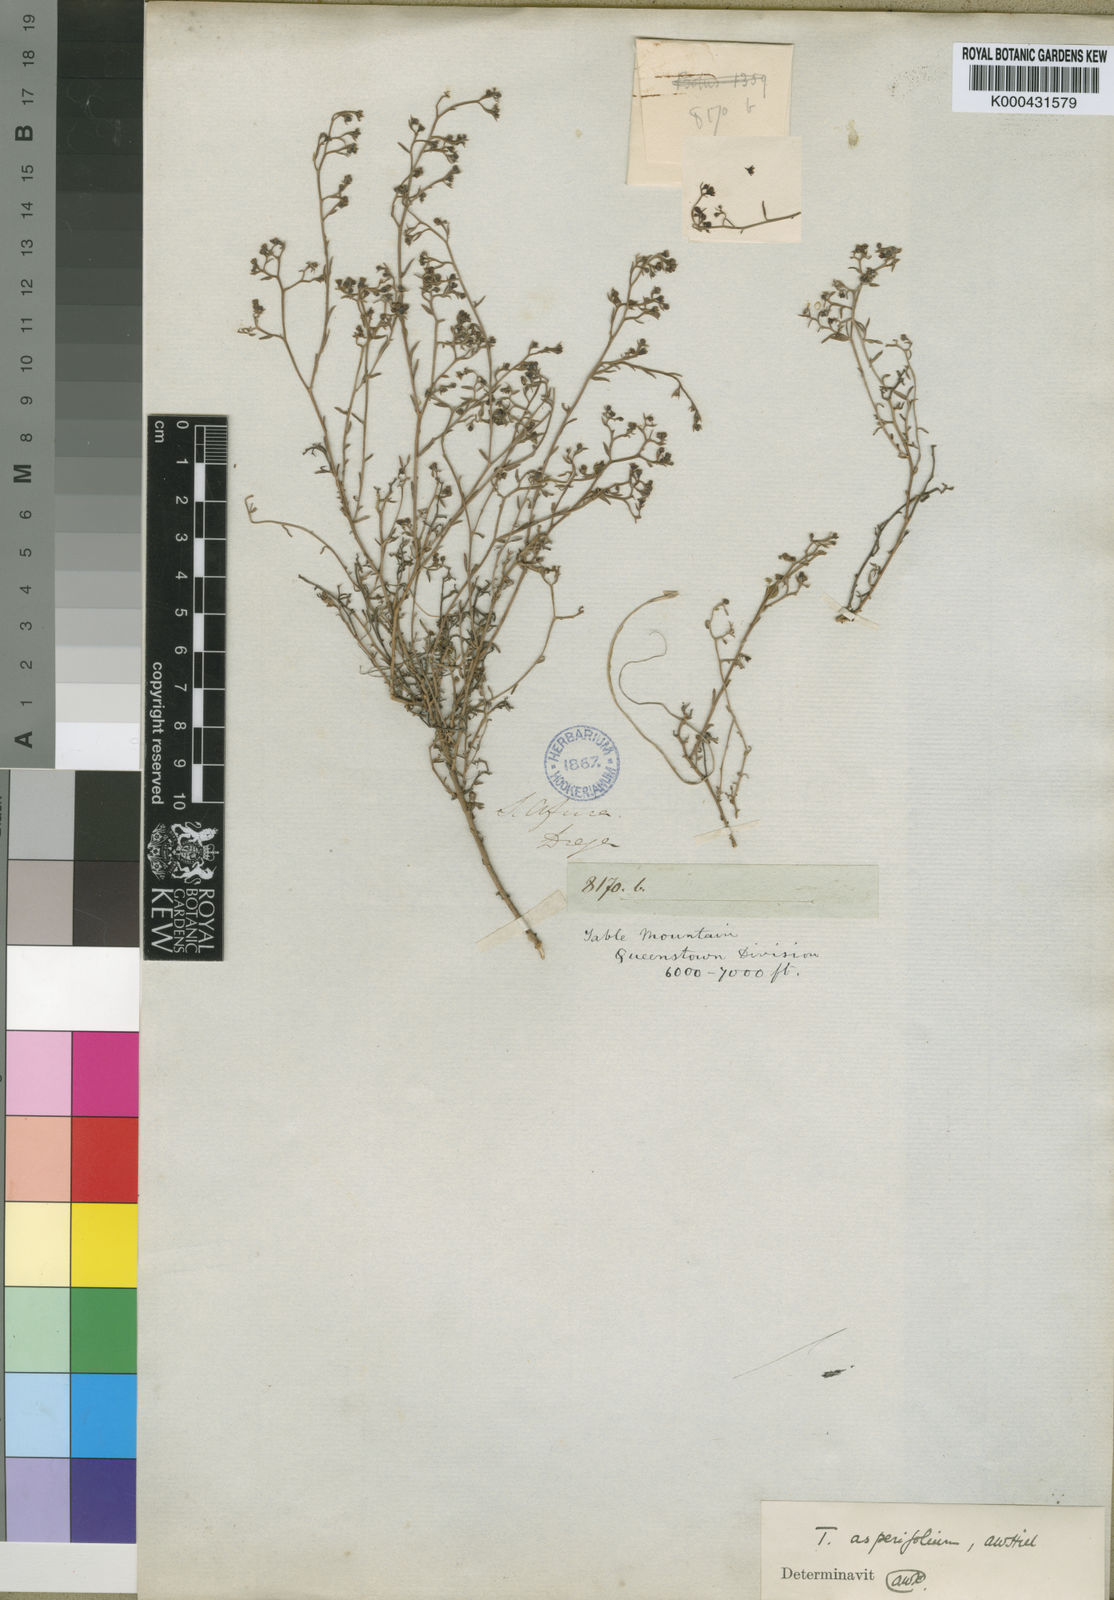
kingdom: Plantae
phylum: Tracheophyta
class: Magnoliopsida
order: Santalales
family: Thesiaceae
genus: Thesium
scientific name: Thesium asperifolium
